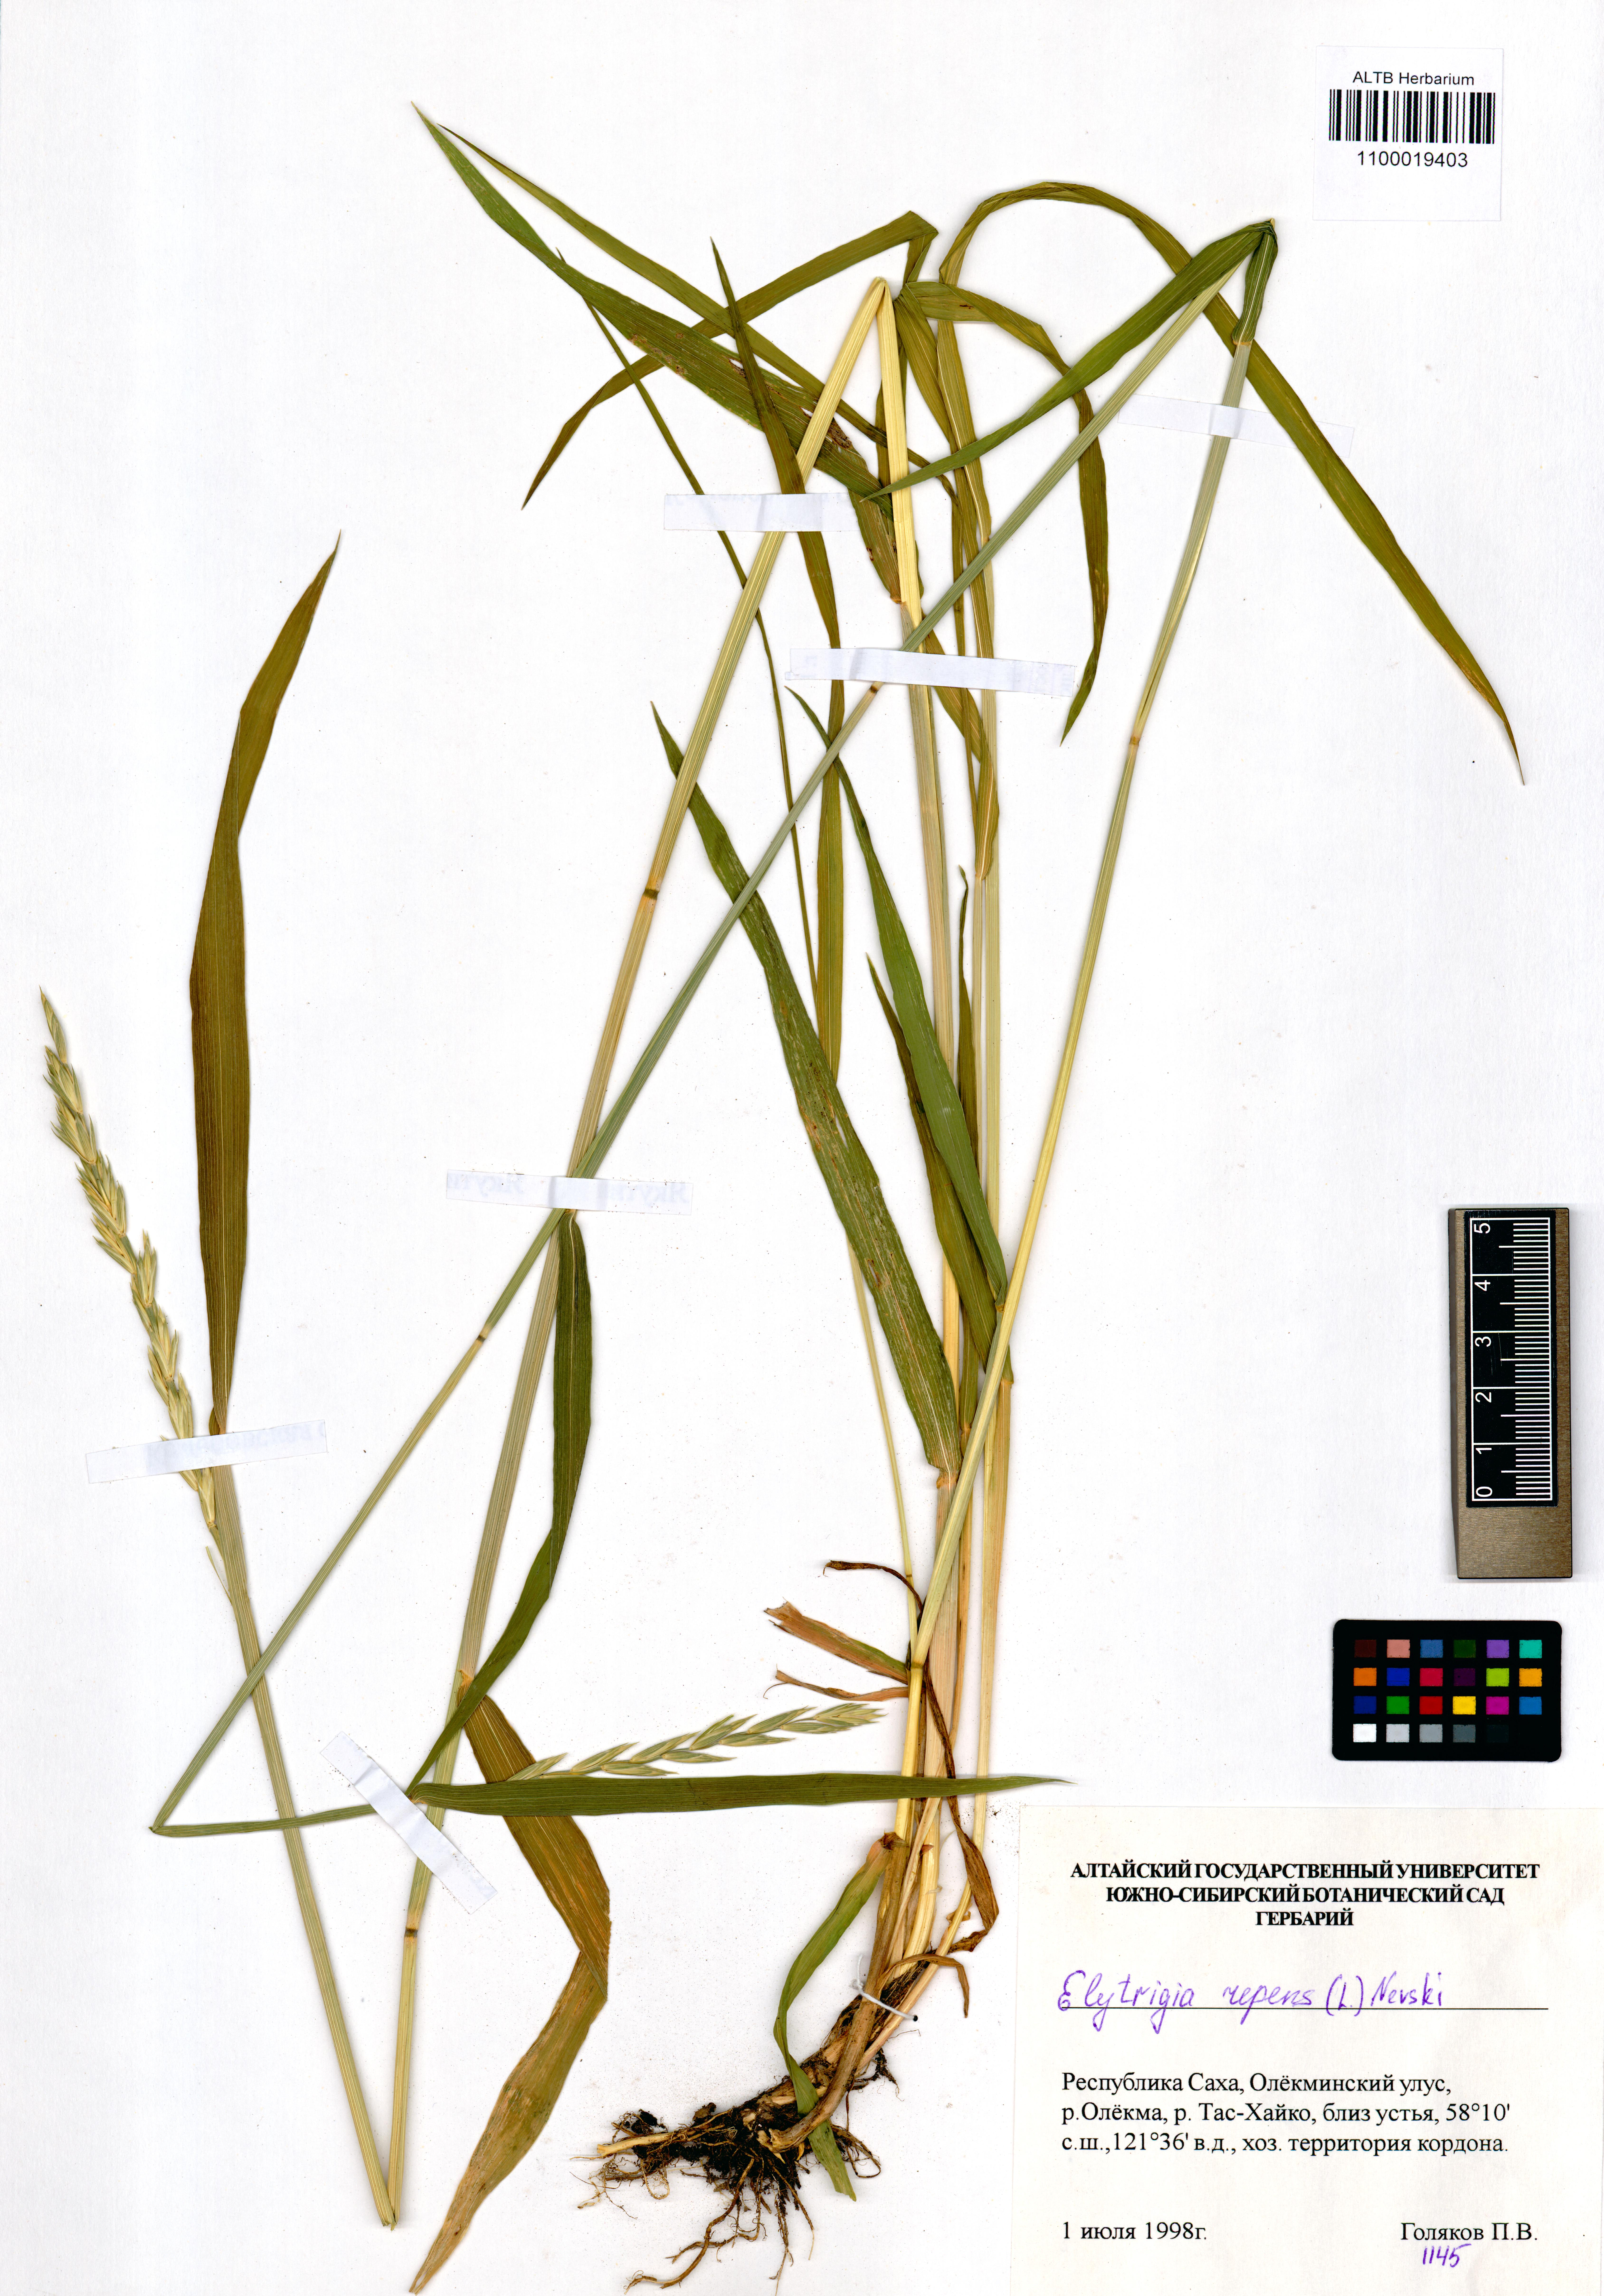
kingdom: Plantae
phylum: Tracheophyta
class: Liliopsida
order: Poales
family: Poaceae
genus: Elymus
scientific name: Elymus repens
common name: Quackgrass
